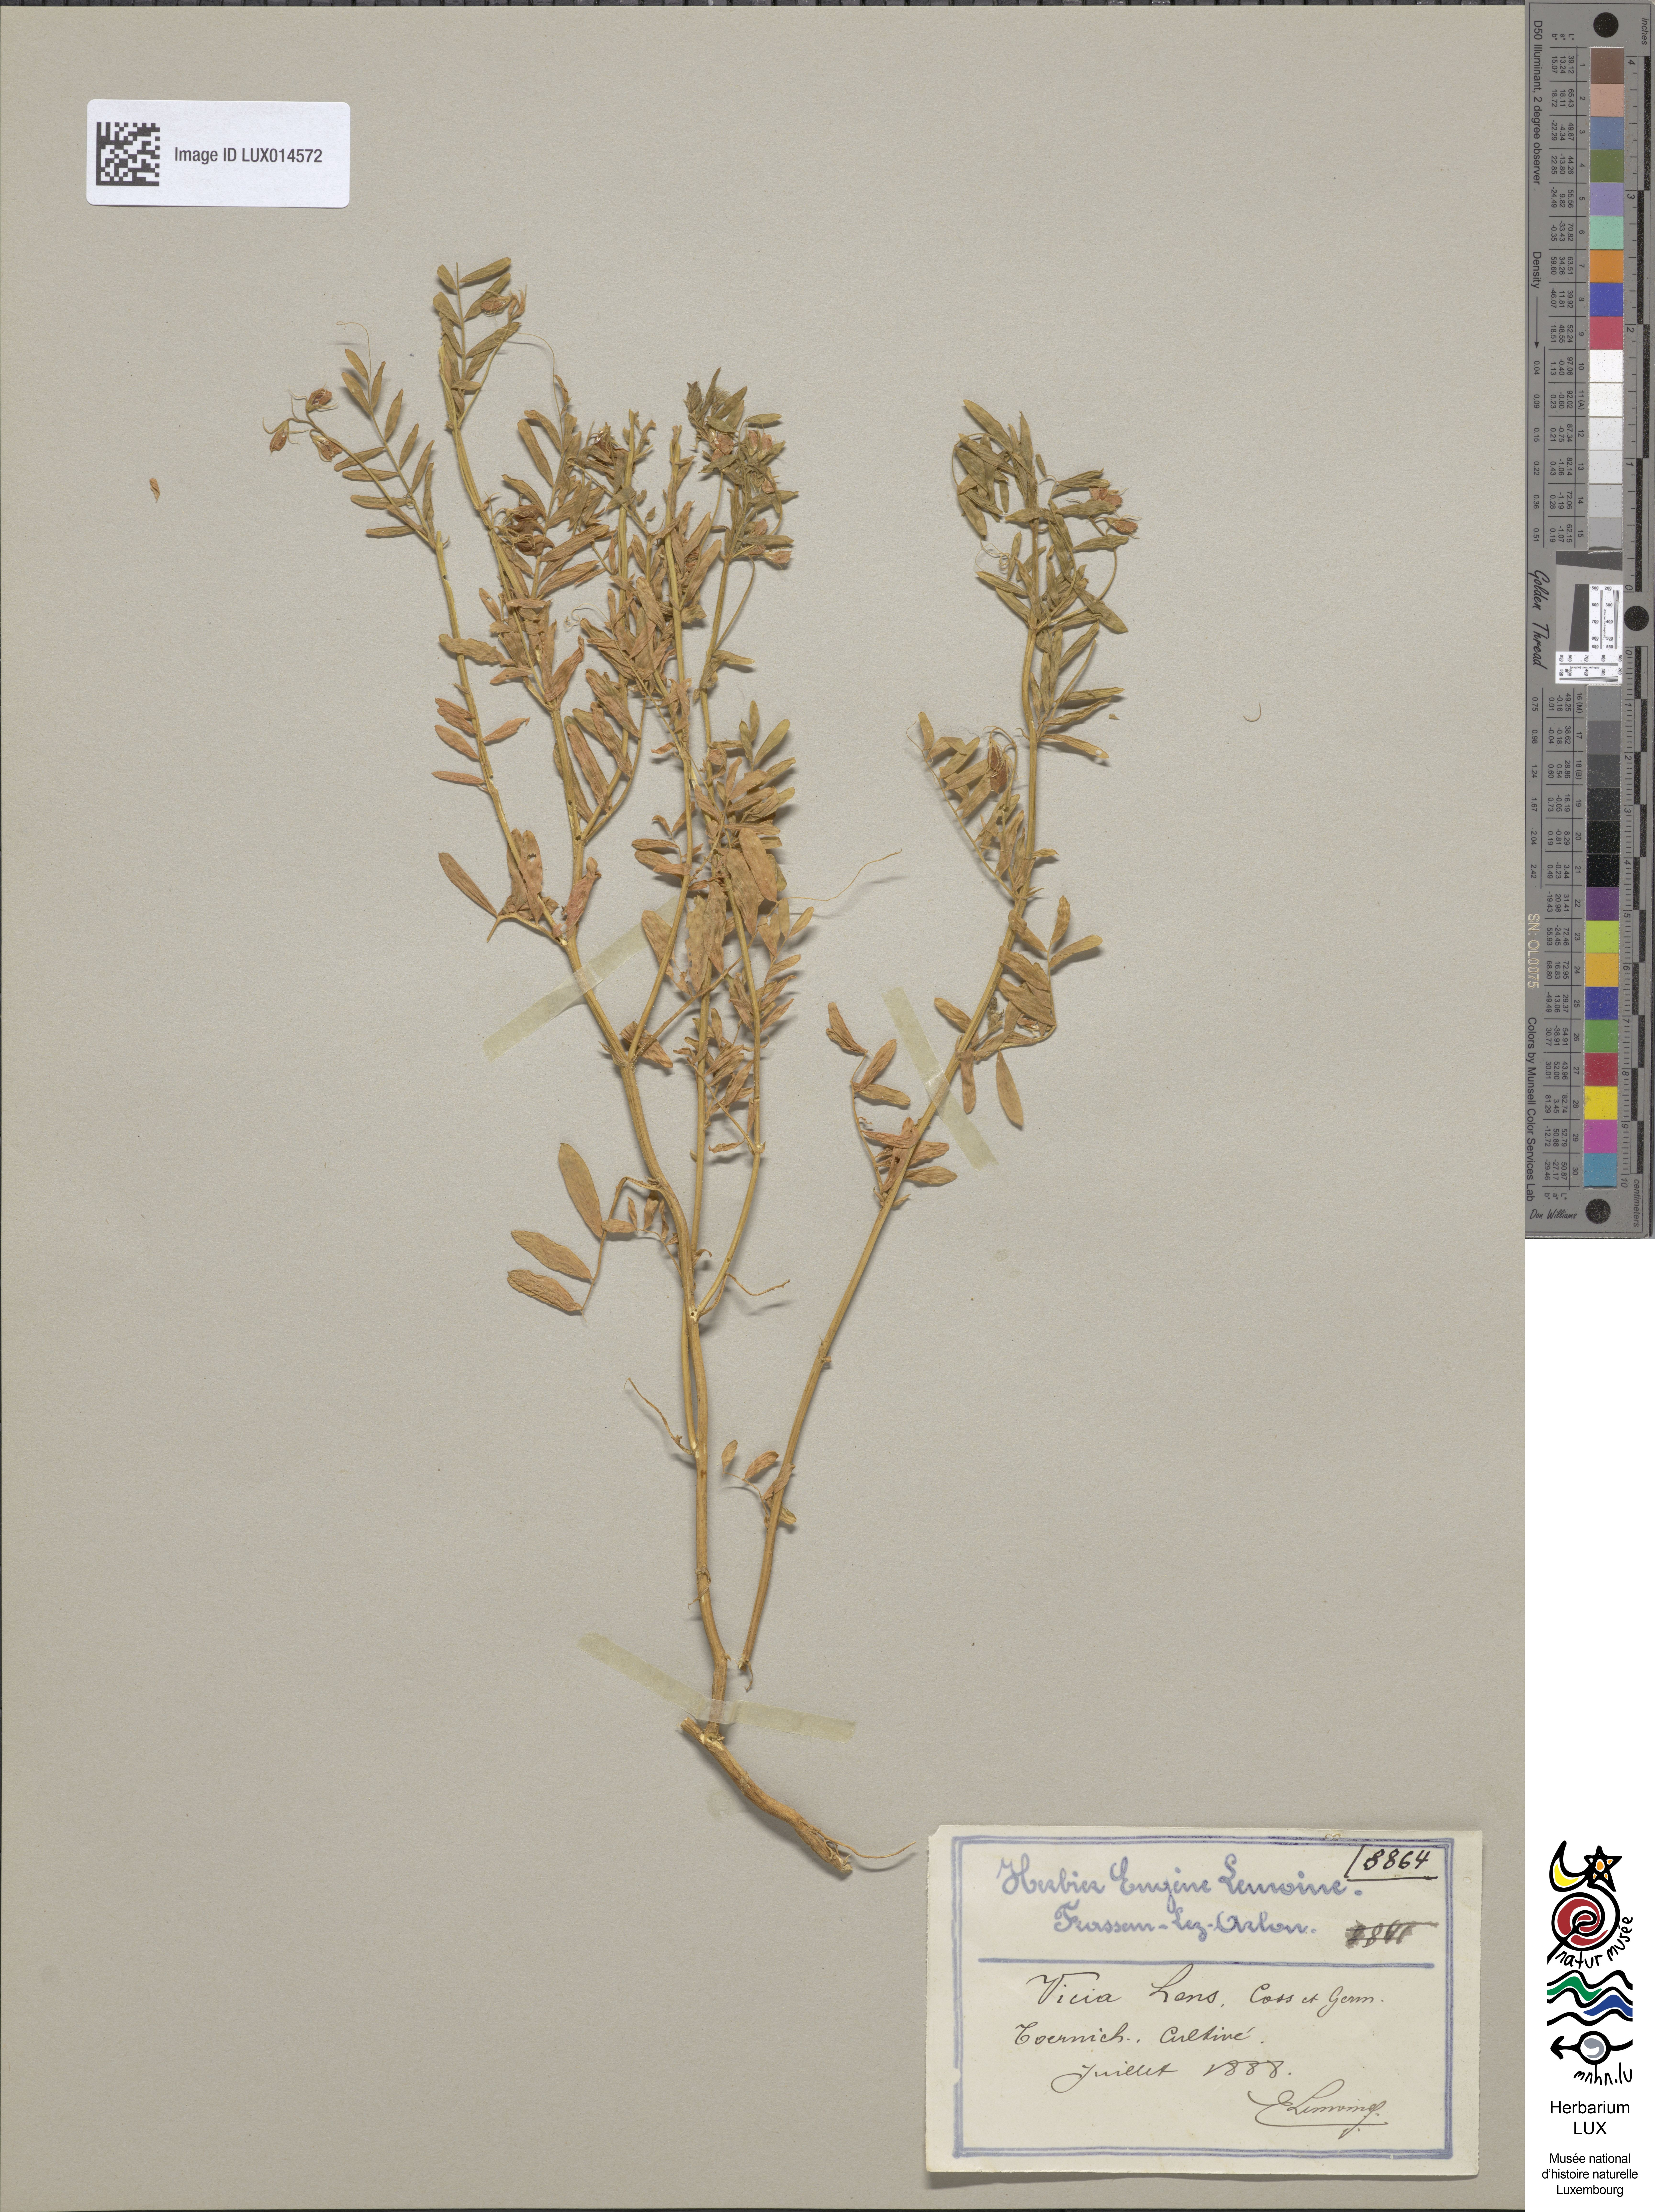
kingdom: Plantae
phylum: Tracheophyta
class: Magnoliopsida
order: Fabales
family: Fabaceae
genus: Vicia
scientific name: Vicia lens
